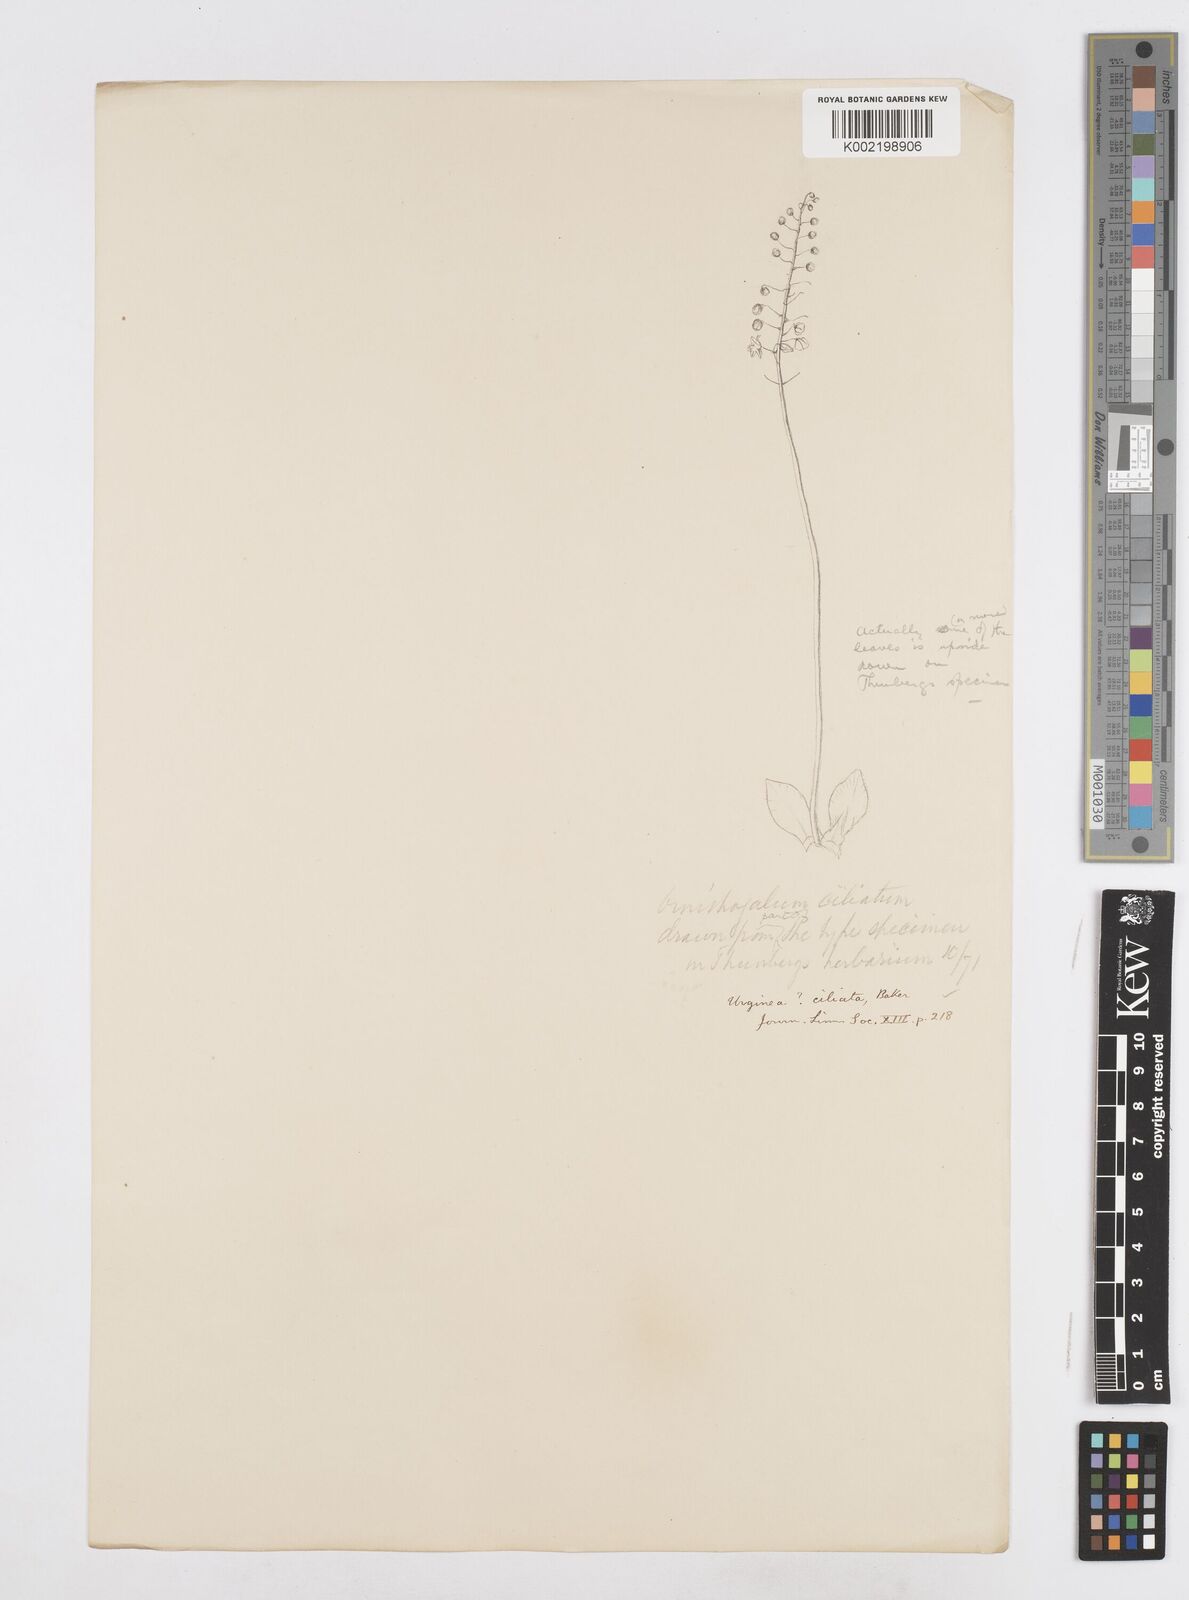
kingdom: Plantae
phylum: Tracheophyta
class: Liliopsida
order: Asparagales
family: Asparagaceae
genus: Drimia
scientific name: Drimia ciliata
